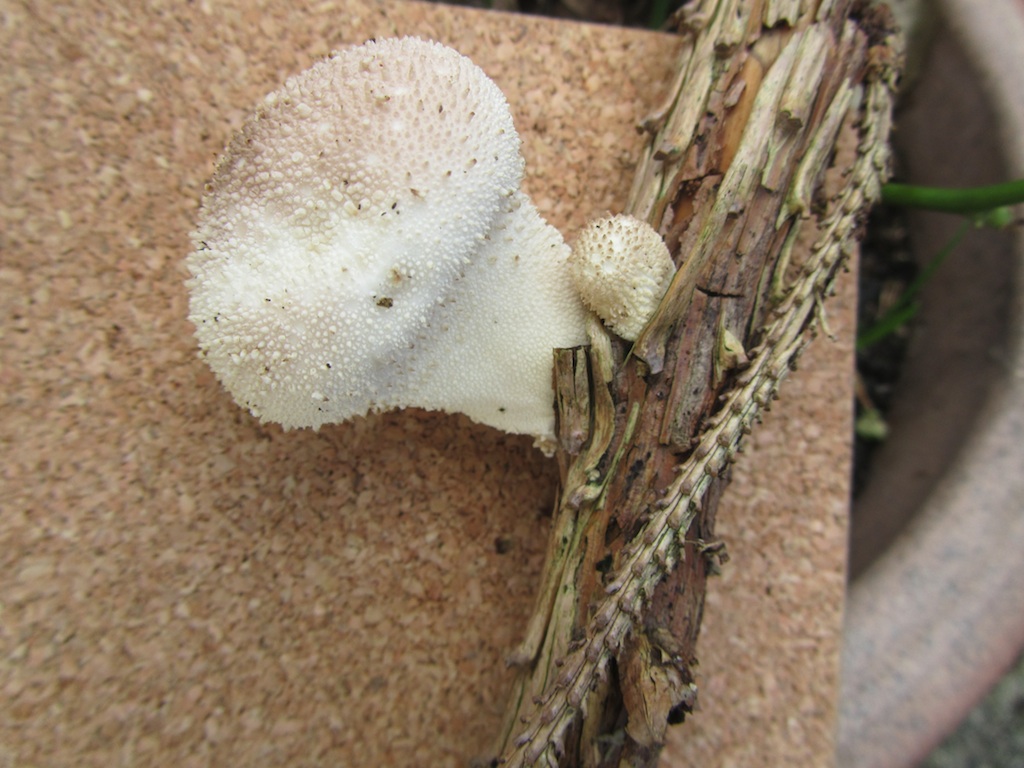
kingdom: Fungi
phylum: Basidiomycota
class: Agaricomycetes
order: Agaricales
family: Lycoperdaceae
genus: Lycoperdon
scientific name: Lycoperdon perlatum
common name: krystal-støvbold
